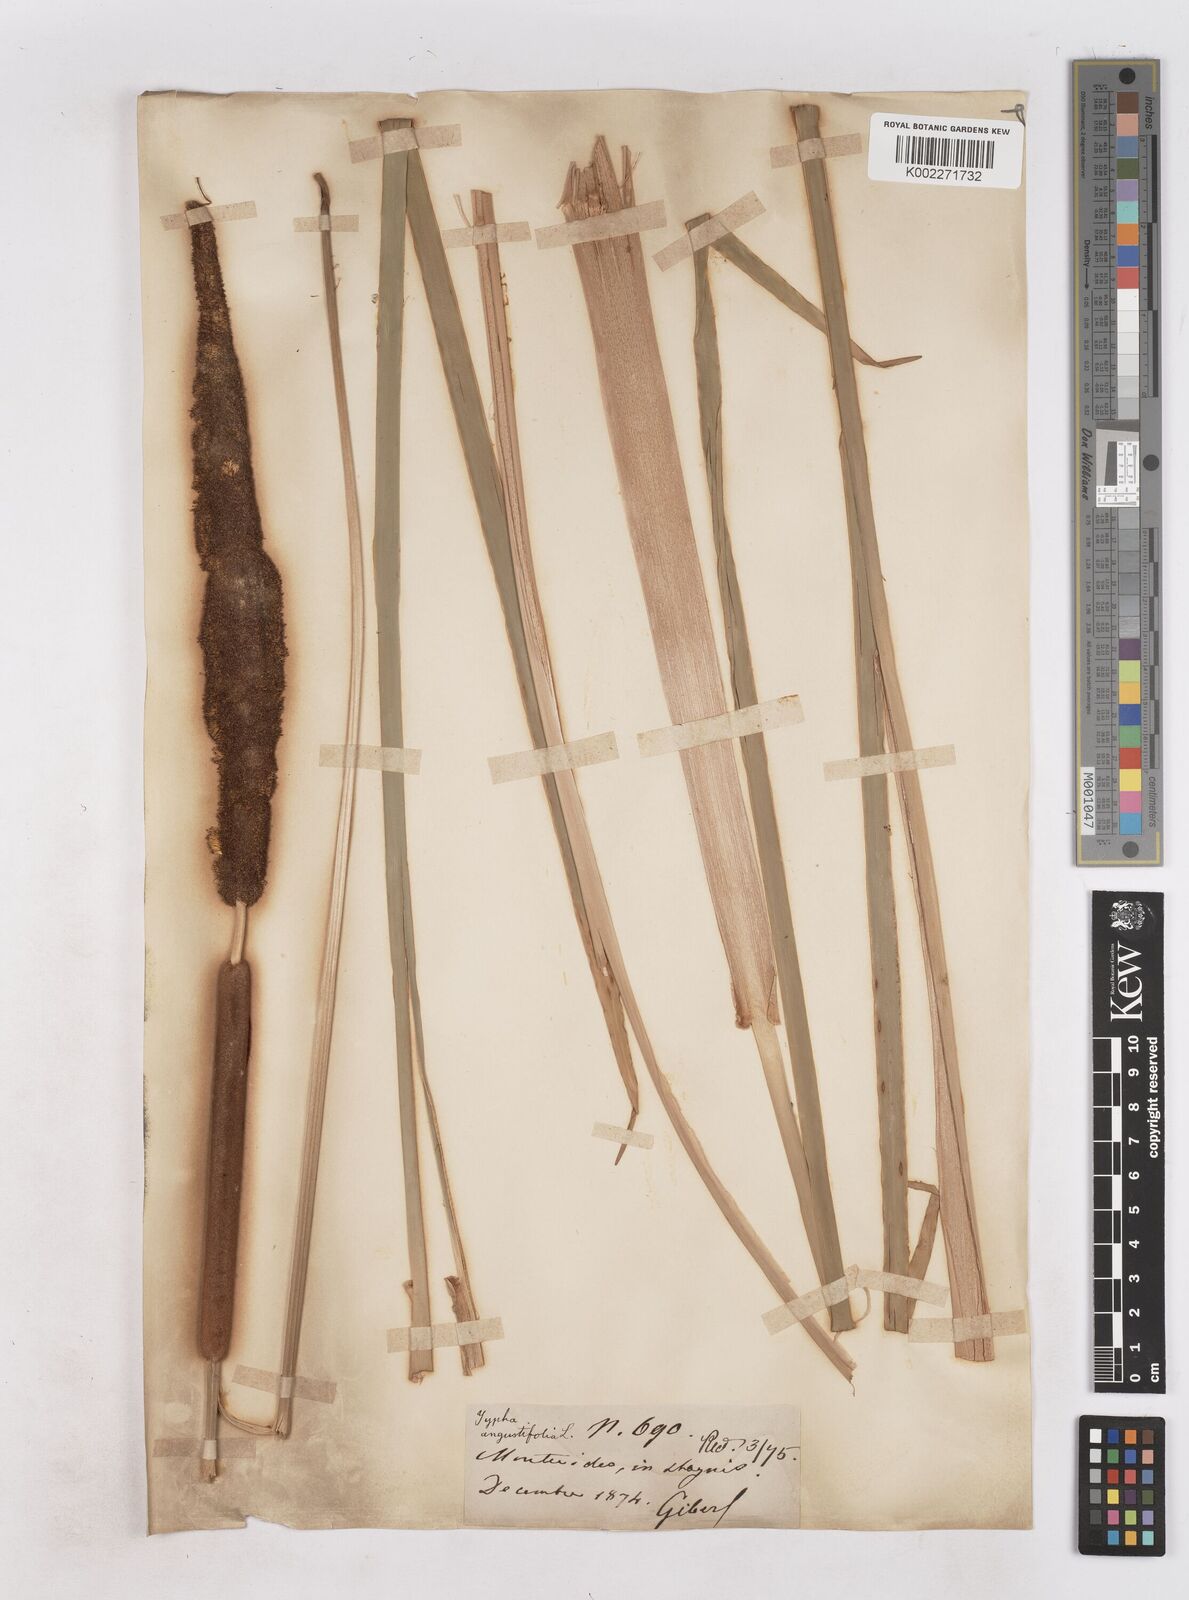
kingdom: Plantae
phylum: Tracheophyta
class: Liliopsida
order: Poales
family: Typhaceae
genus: Typha
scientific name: Typha domingensis
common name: Southern cattail
